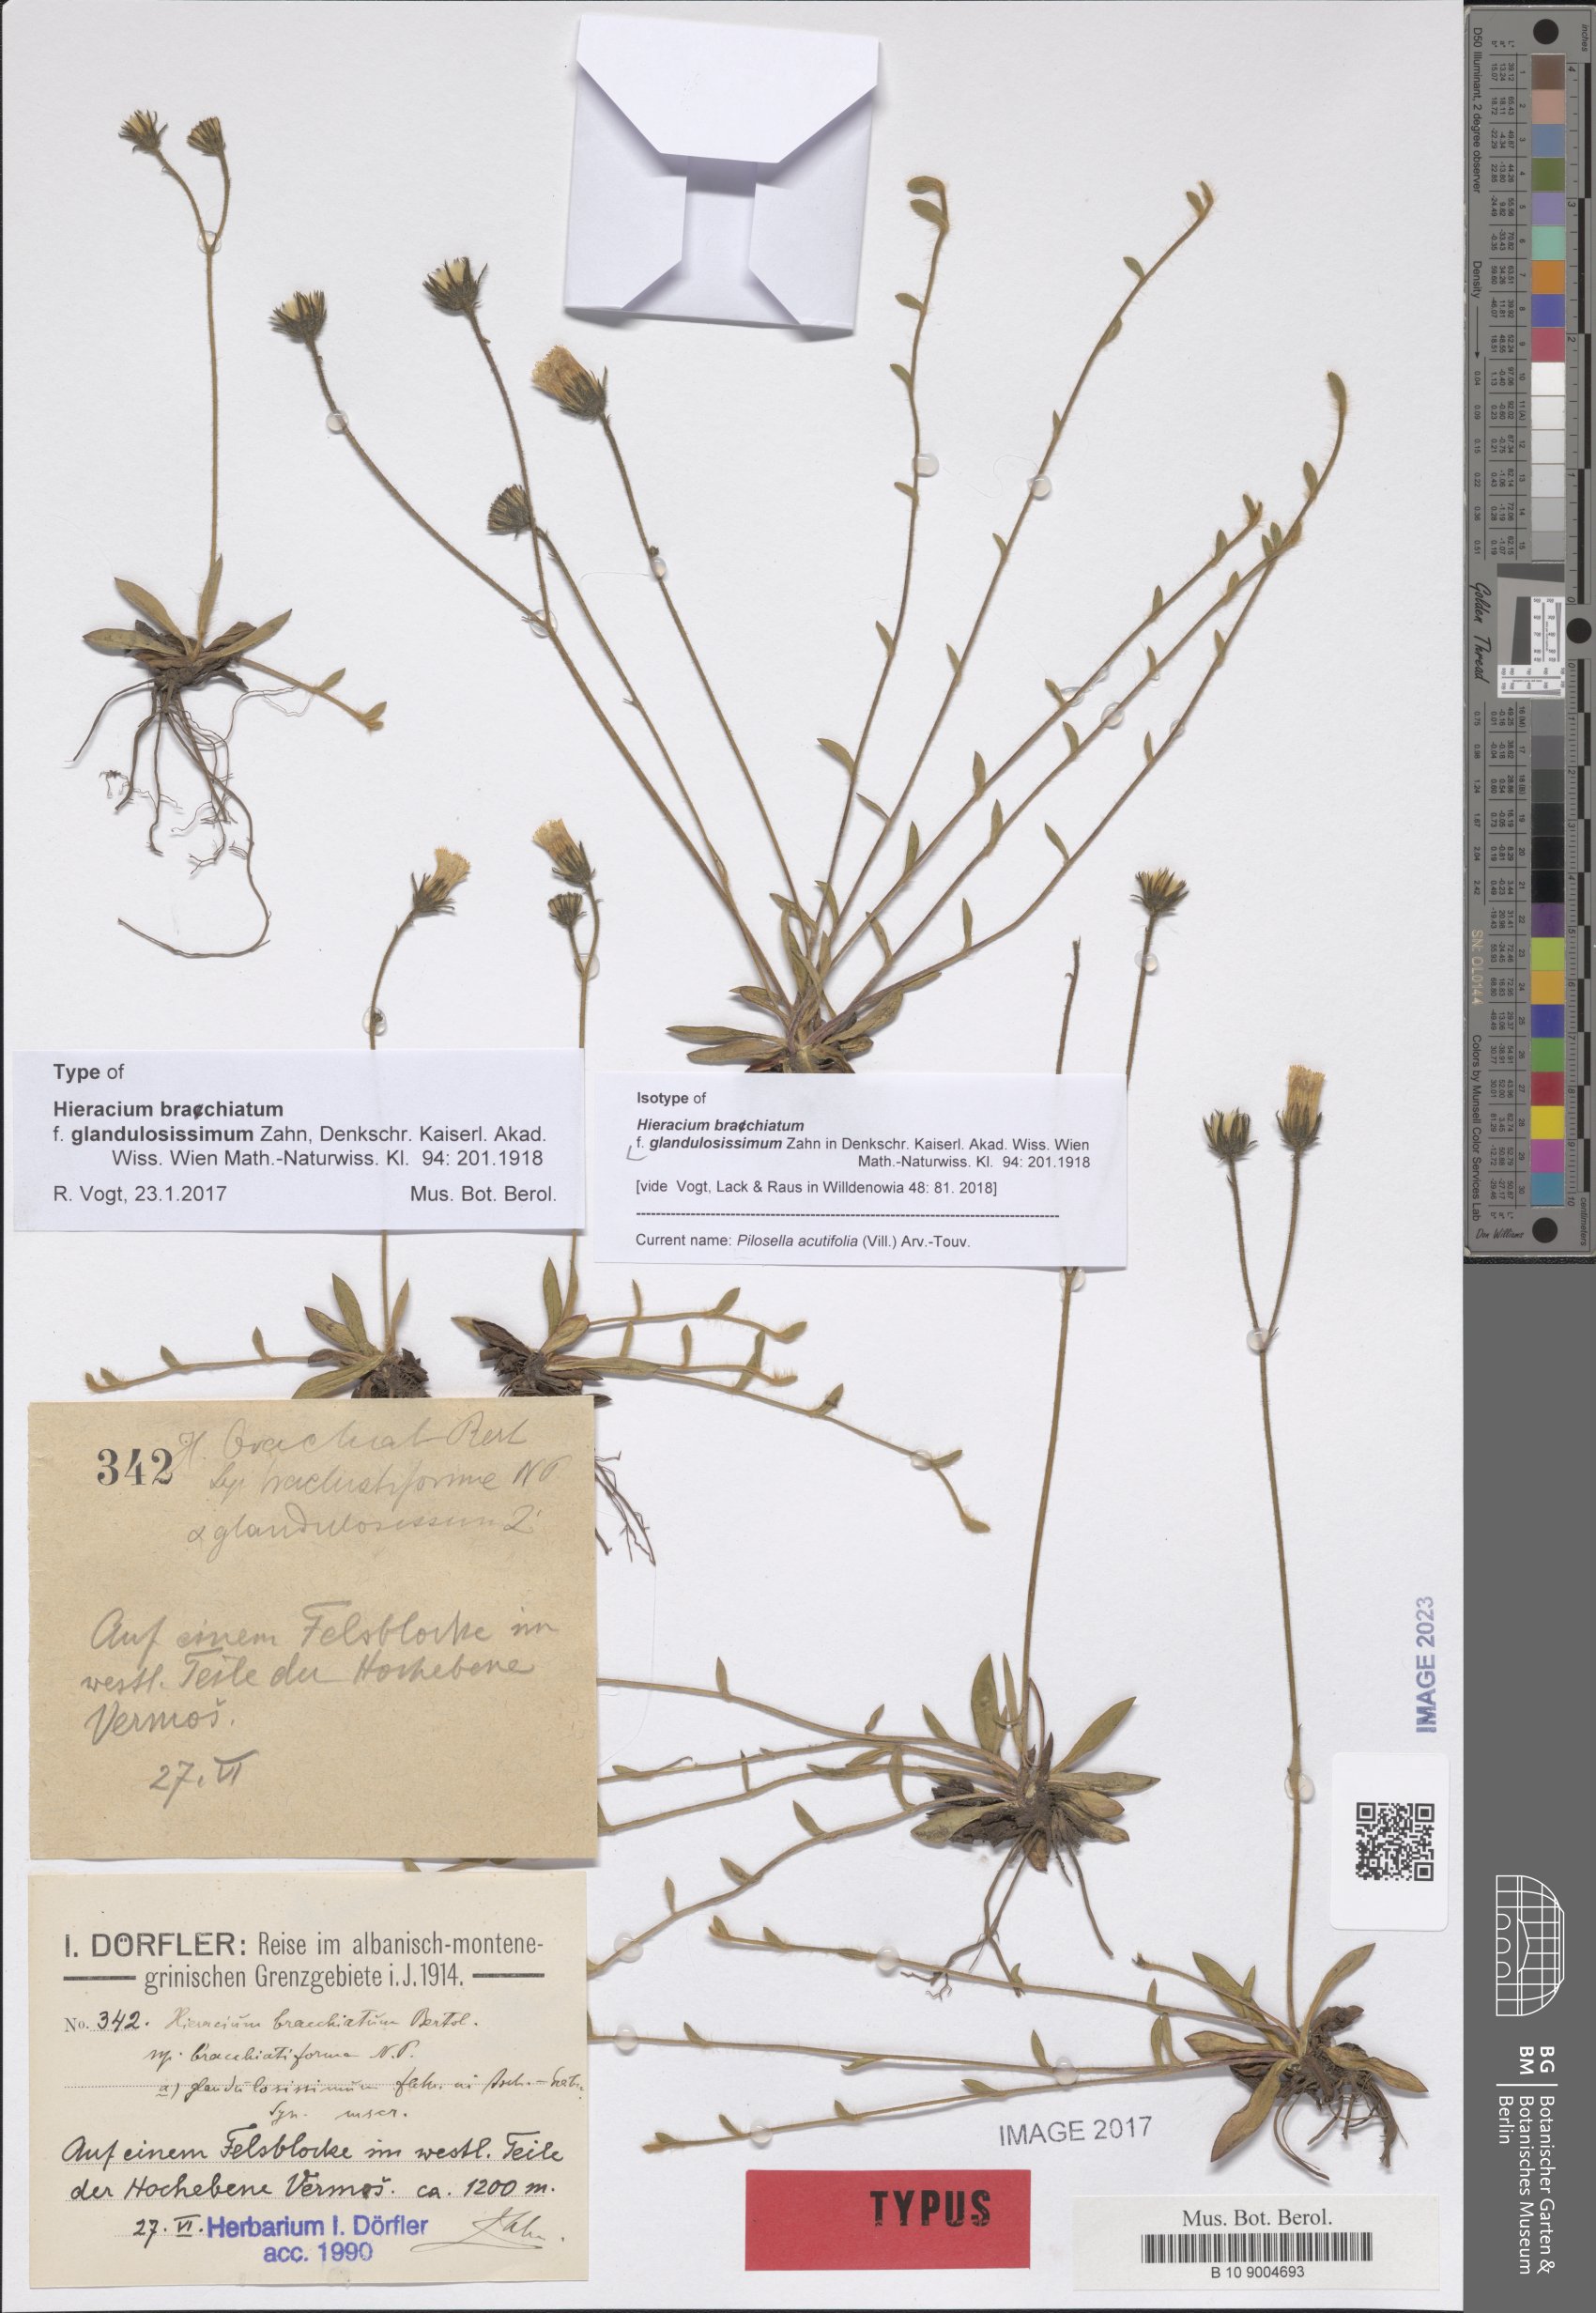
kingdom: Plantae
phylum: Tracheophyta
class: Magnoliopsida
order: Asterales
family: Asteraceae
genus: Pilosella
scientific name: Pilosella acutifolia
